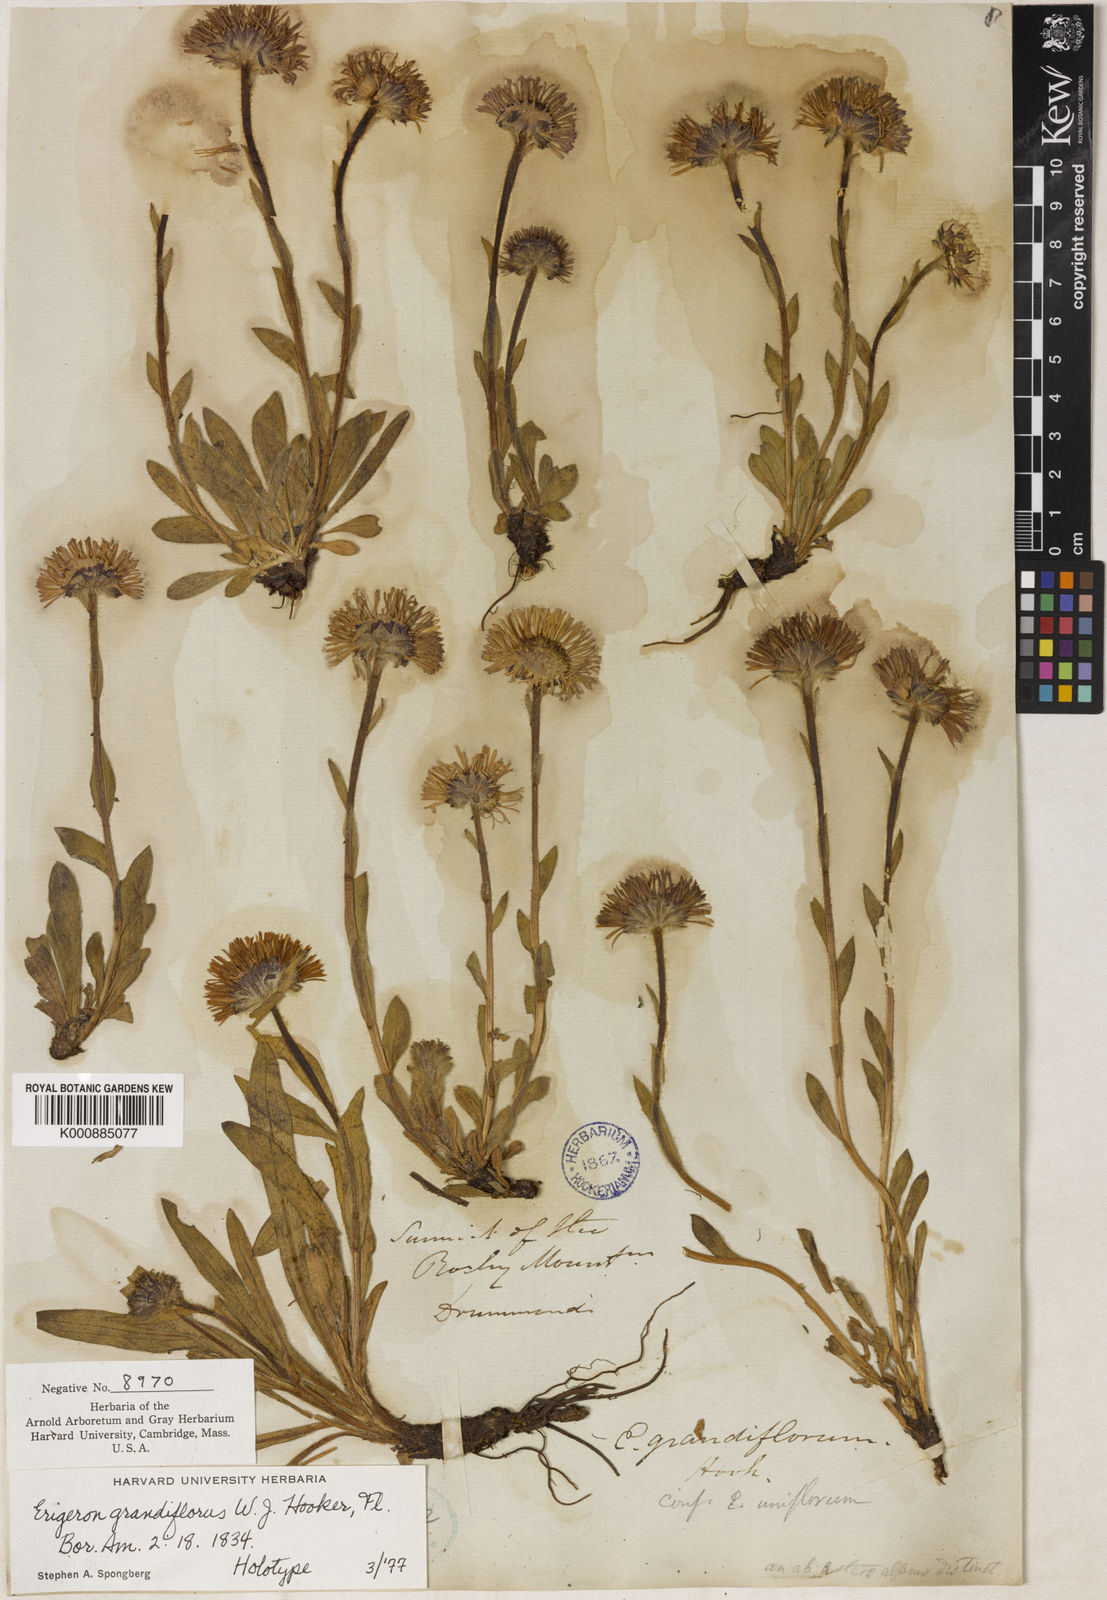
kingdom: Plantae
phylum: Tracheophyta
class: Magnoliopsida
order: Asterales
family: Asteraceae
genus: Erigeron
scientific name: Erigeron grandiflorus
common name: Rocky mountain alpine fleabane
